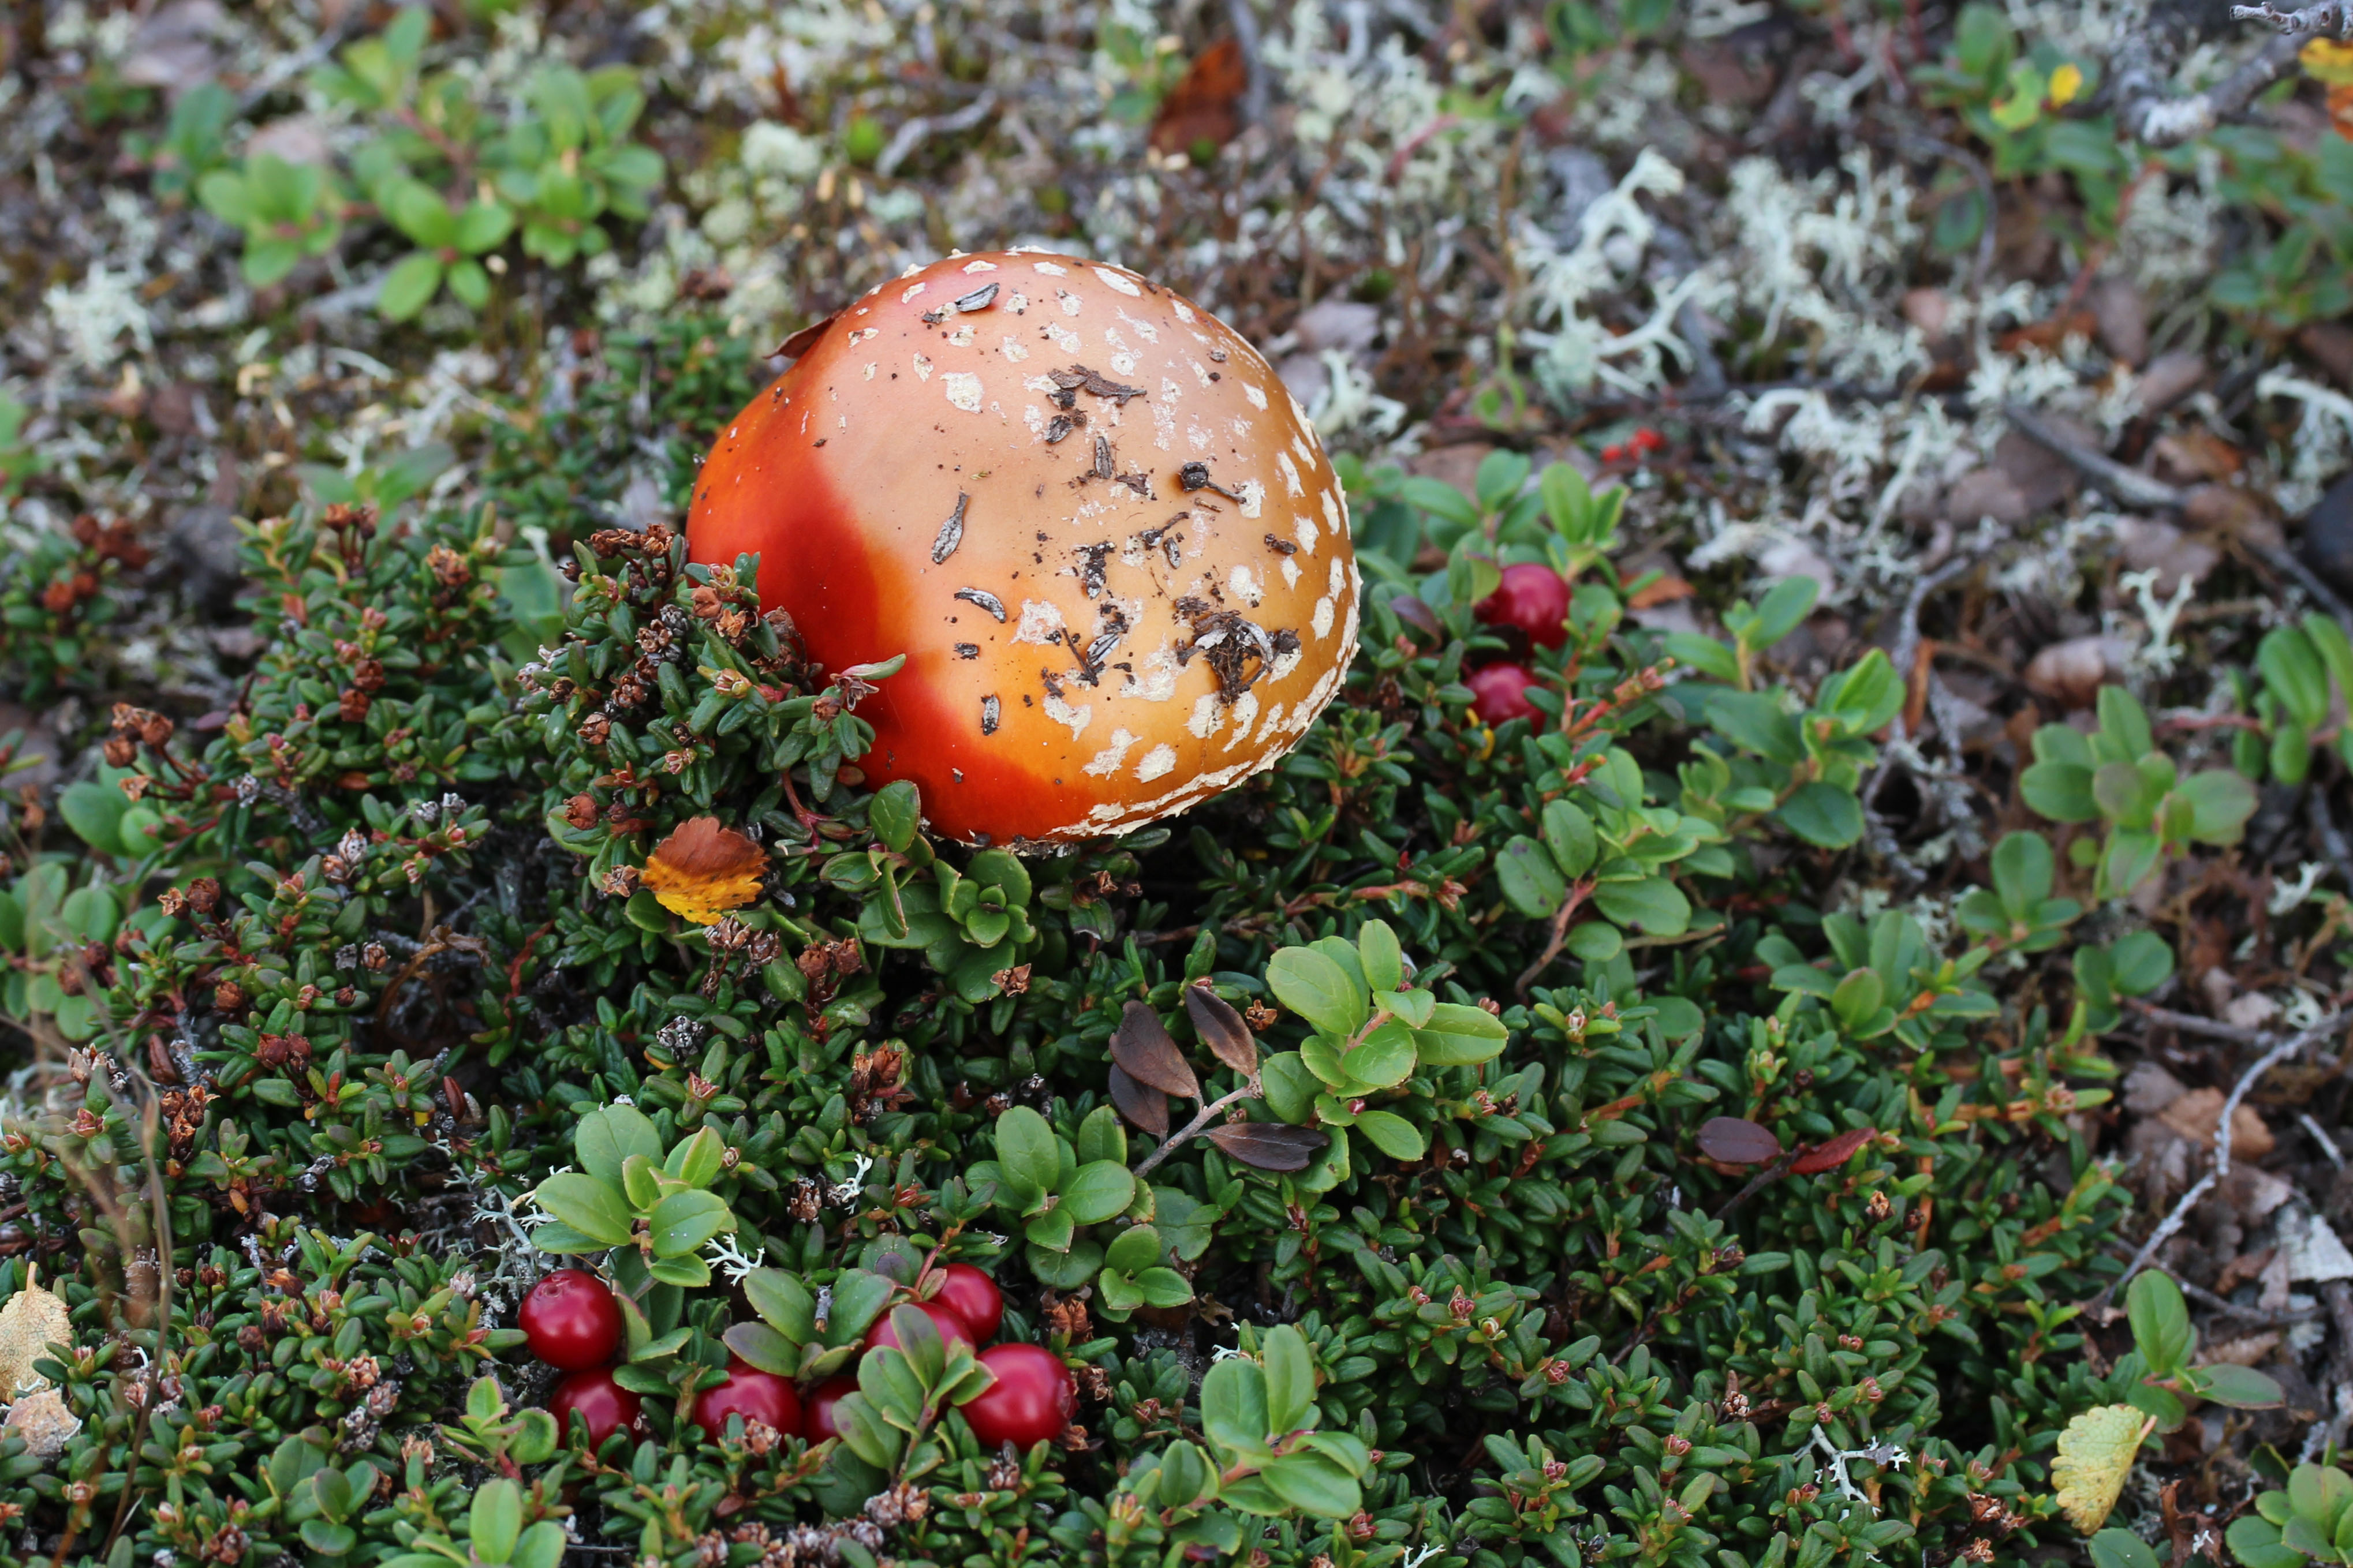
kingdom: Fungi
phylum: Basidiomycota
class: Agaricomycetes
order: Agaricales
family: Amanitaceae
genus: Amanita
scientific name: Amanita muscaria
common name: Fly agaric
